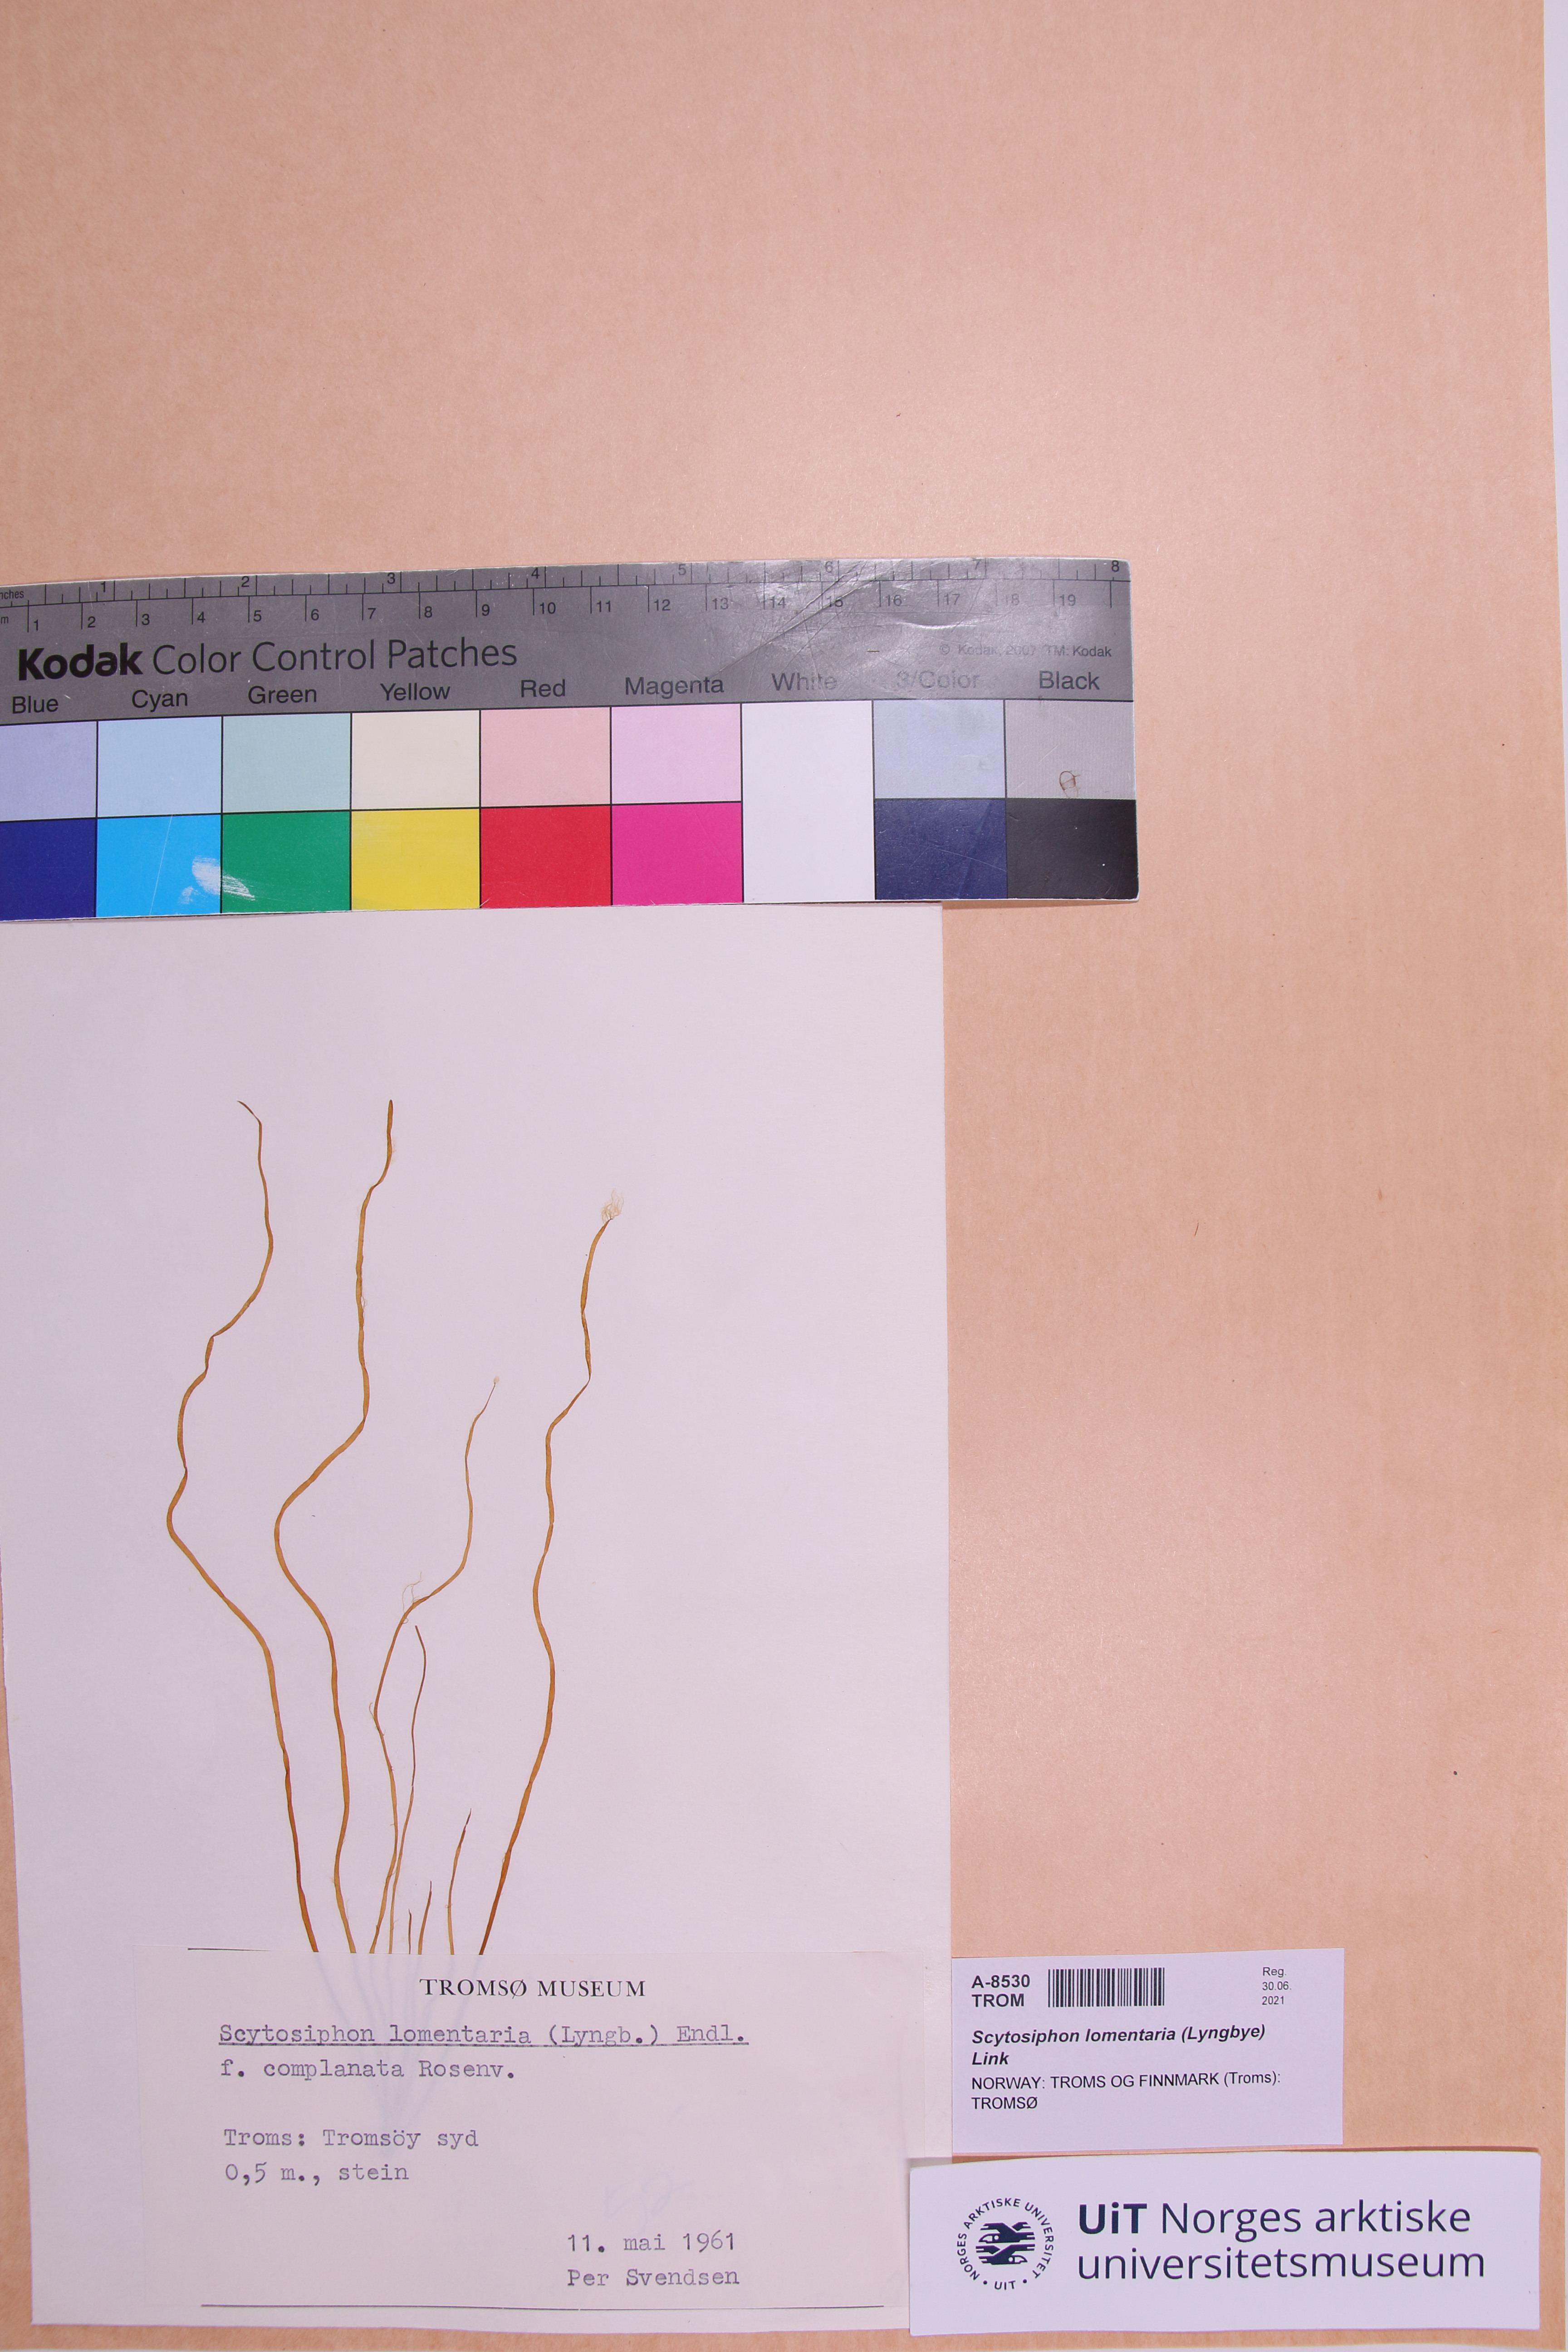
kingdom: Chromista
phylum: Ochrophyta
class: Phaeophyceae
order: Scytosiphonales
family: Scytosiphonaceae
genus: Scytosiphon
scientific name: Scytosiphon lomentaria
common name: Beanweed
